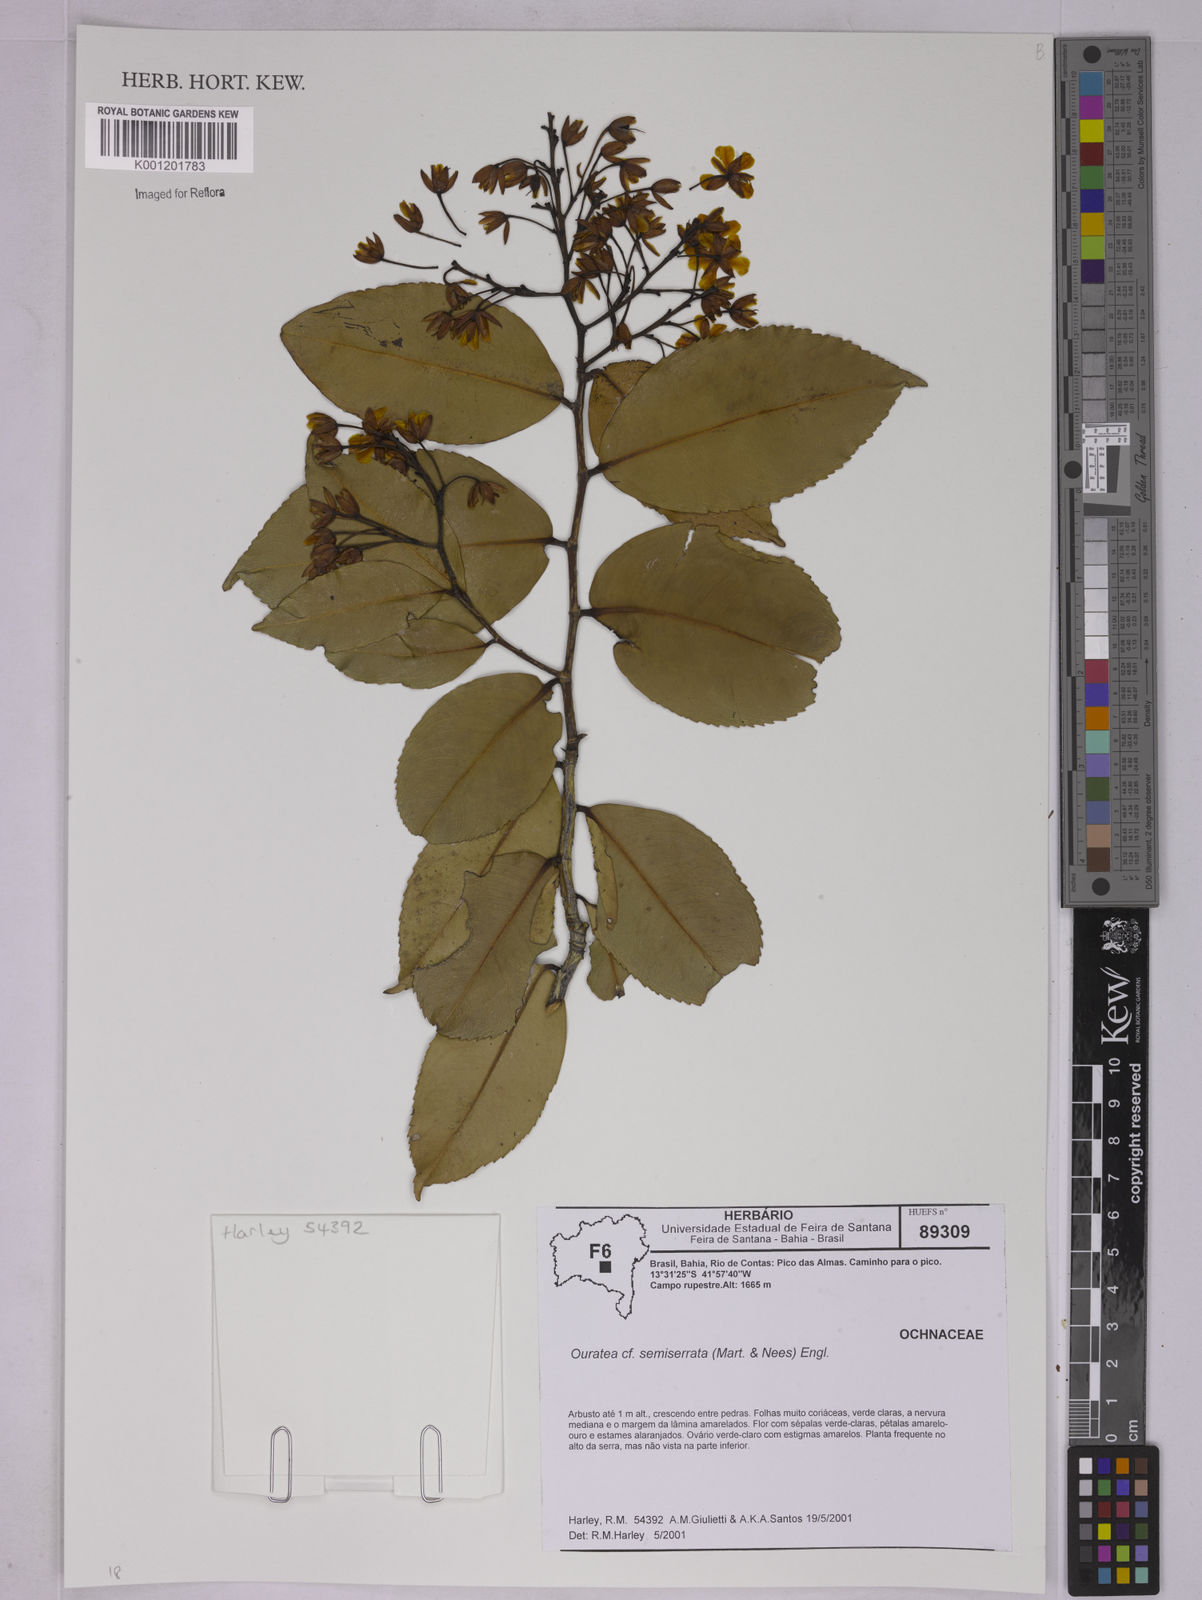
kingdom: Plantae
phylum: Tracheophyta
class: Magnoliopsida
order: Malpighiales
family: Ochnaceae
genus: Ouratea
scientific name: Ouratea semiserrata
